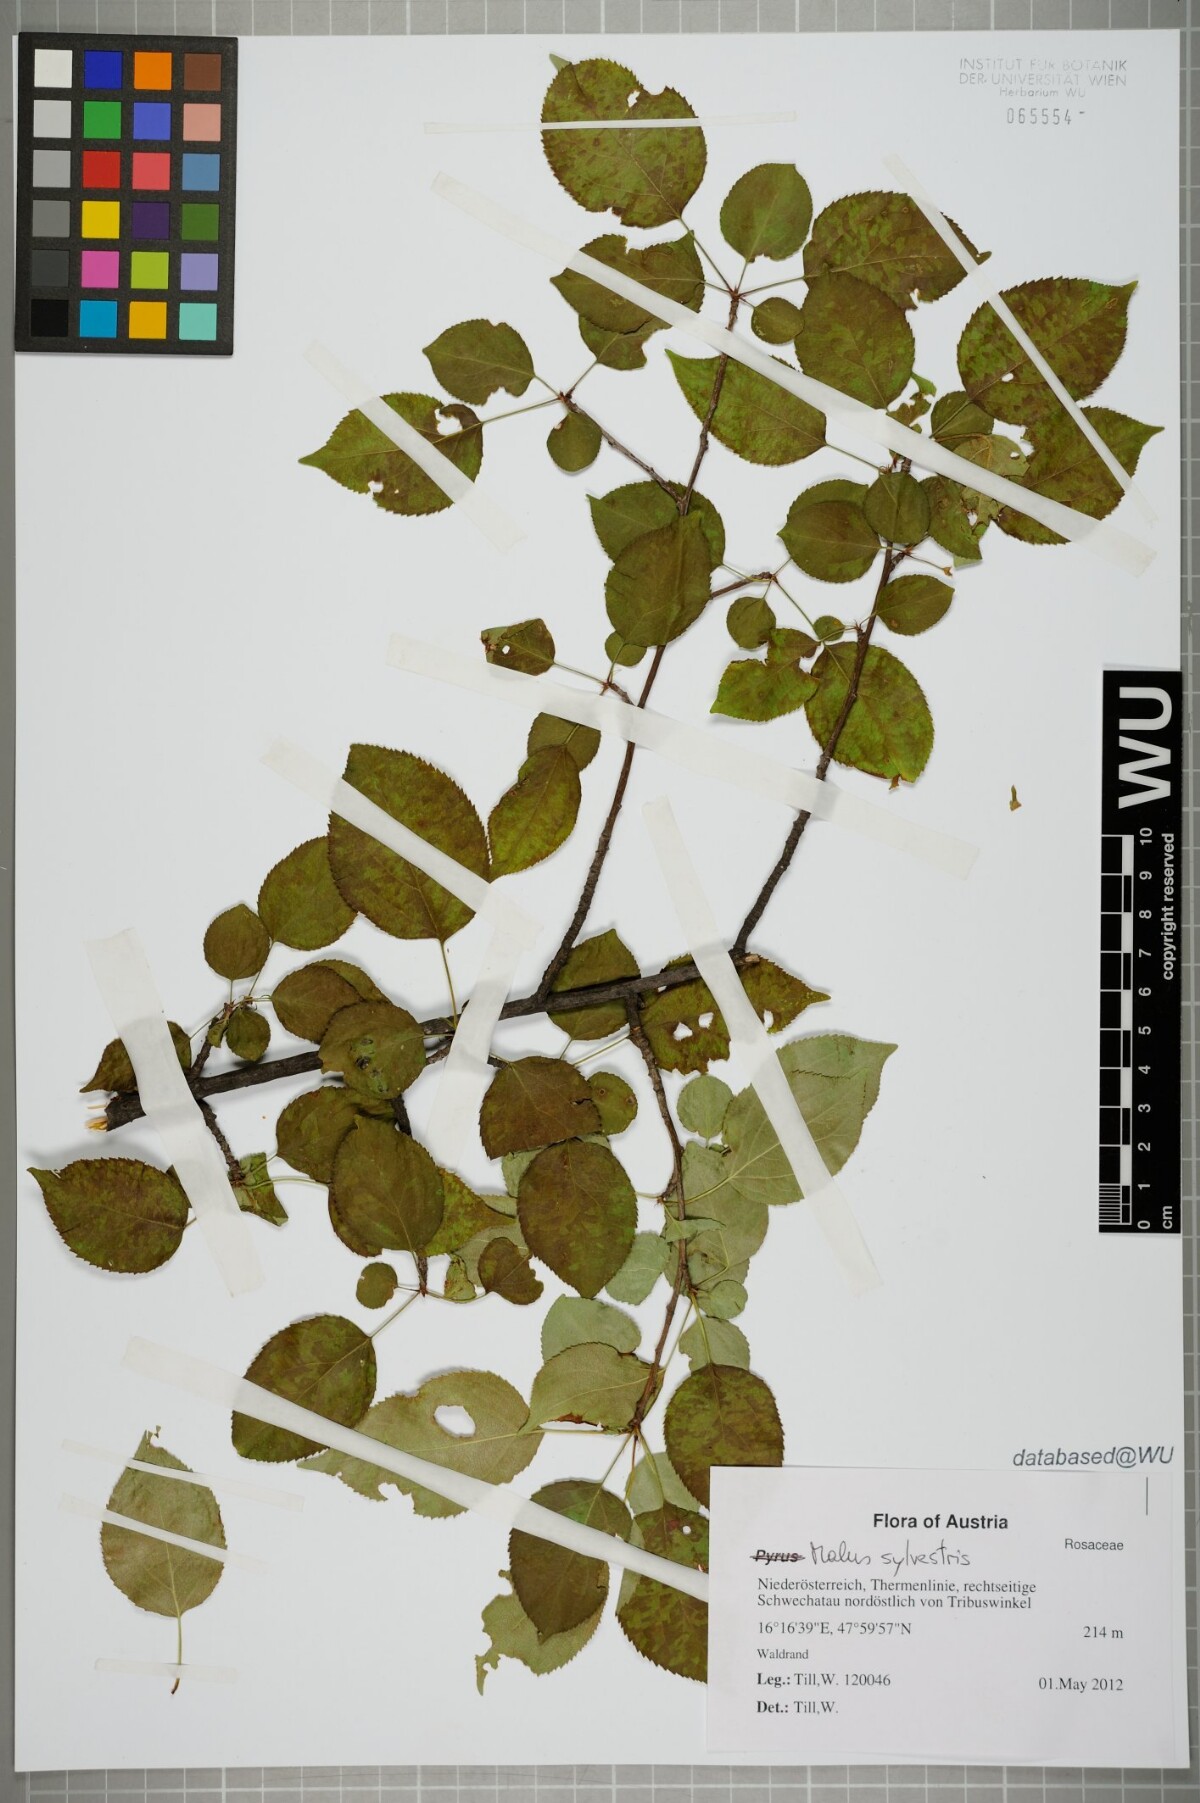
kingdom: Plantae
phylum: Tracheophyta
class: Magnoliopsida
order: Rosales
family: Rosaceae
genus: Malus
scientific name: Malus sylvestris
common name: Crab apple
